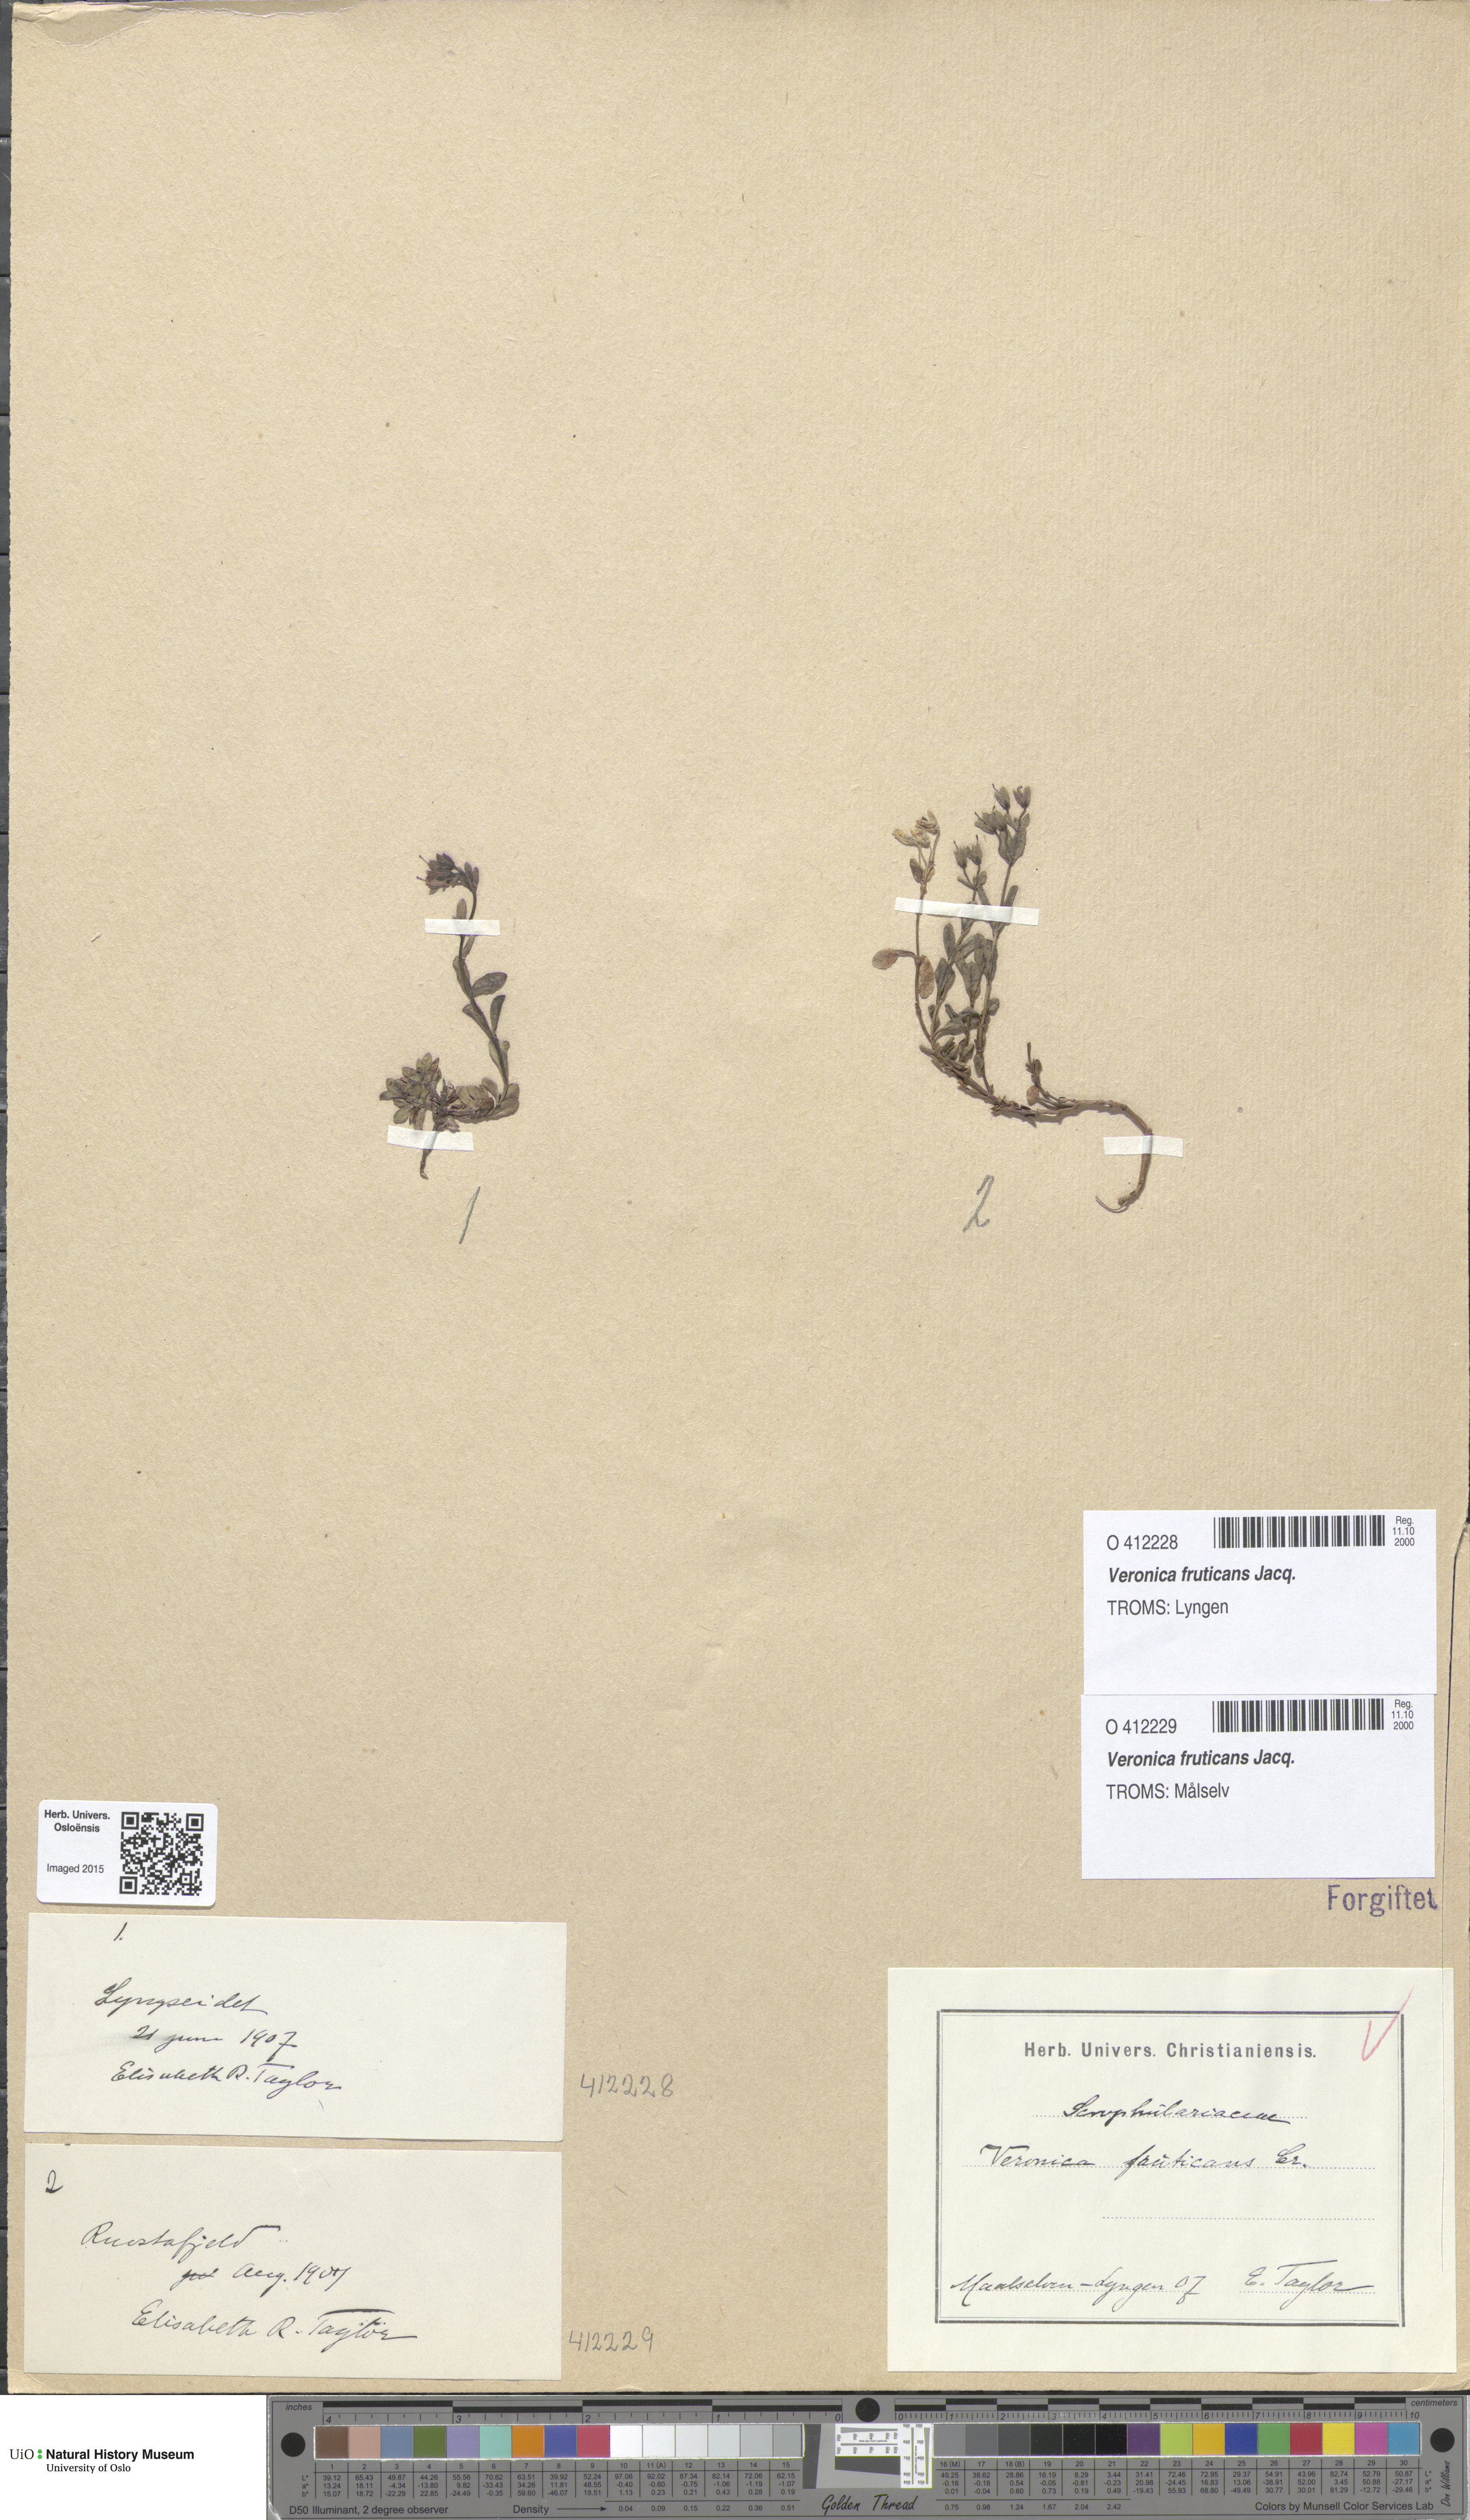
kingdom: Plantae
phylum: Tracheophyta
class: Magnoliopsida
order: Lamiales
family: Plantaginaceae
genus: Veronica
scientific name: Veronica fruticans
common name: Rock speedwell
